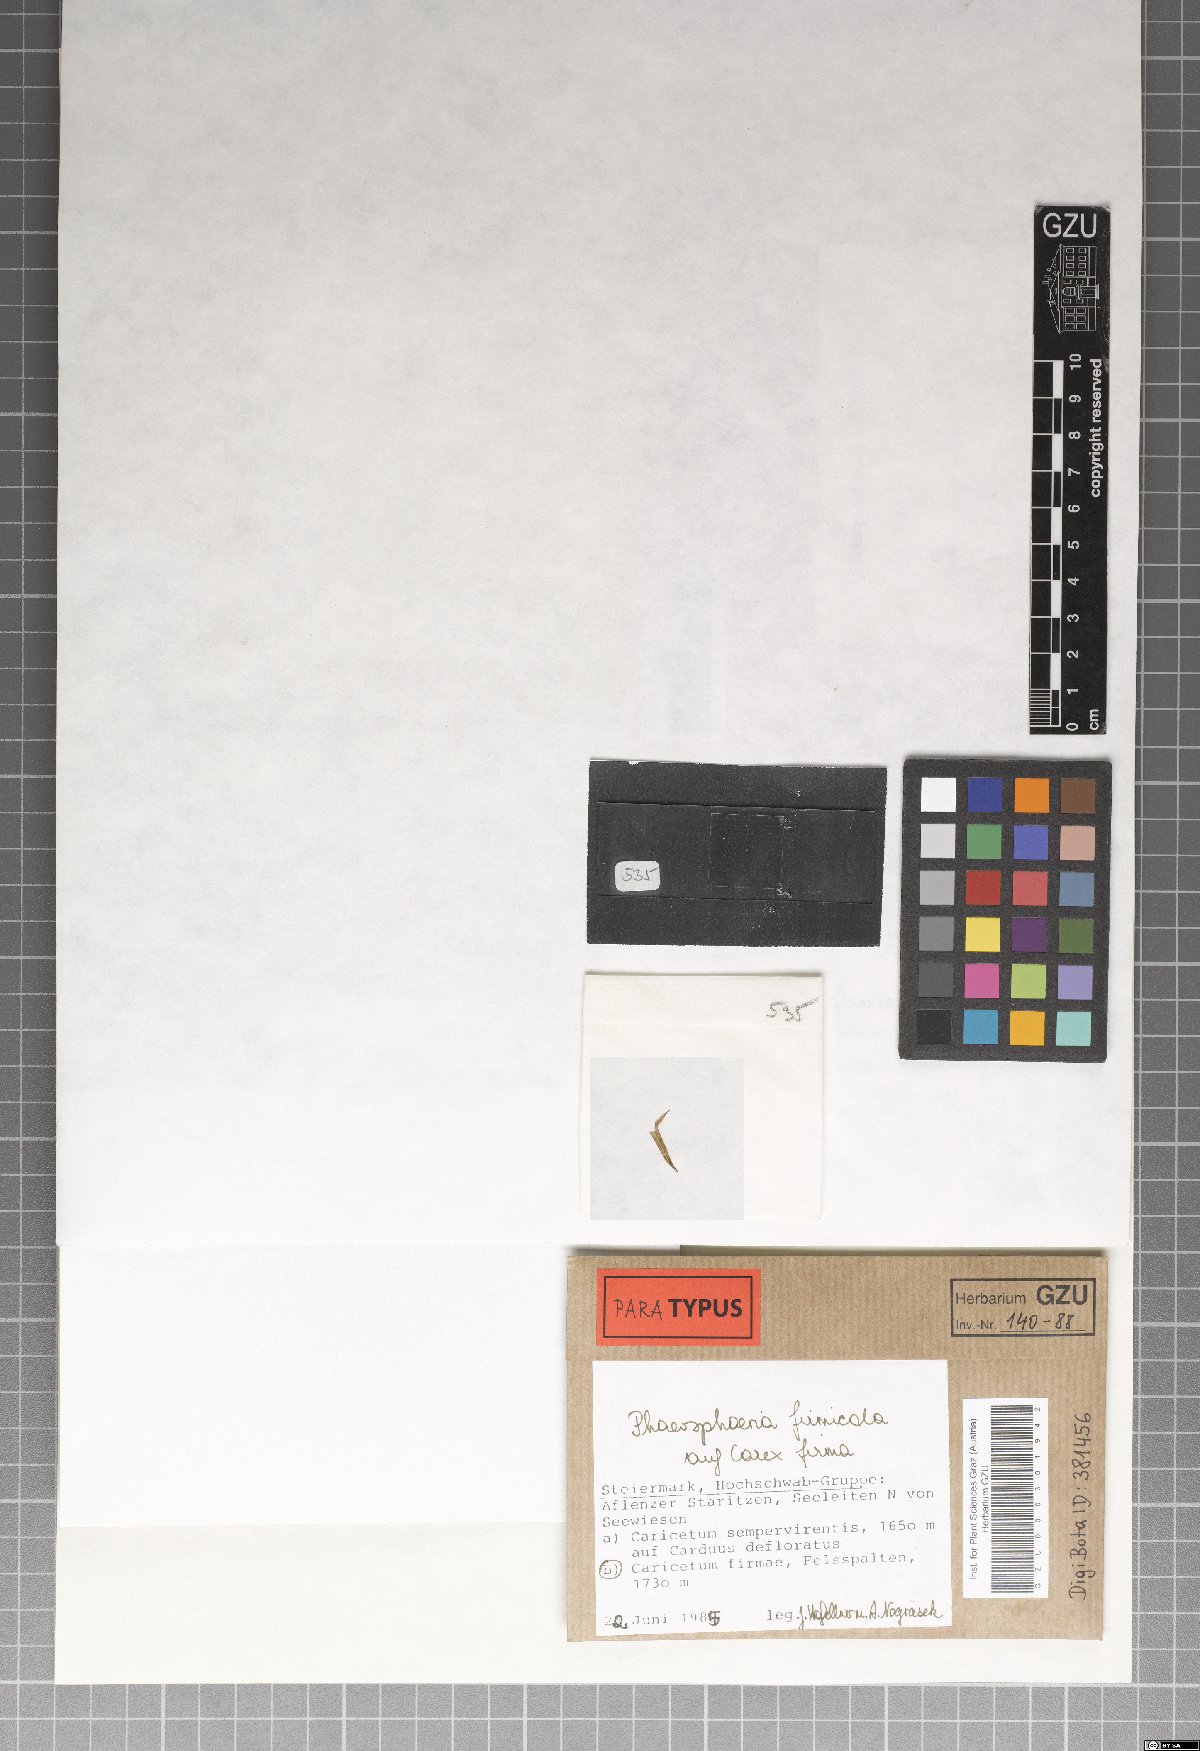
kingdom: Fungi
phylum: Ascomycota
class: Dothideomycetes
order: Pleosporales
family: Phaeosphaeriaceae
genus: Phaeosphaeria
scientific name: Phaeosphaeria firmicola
